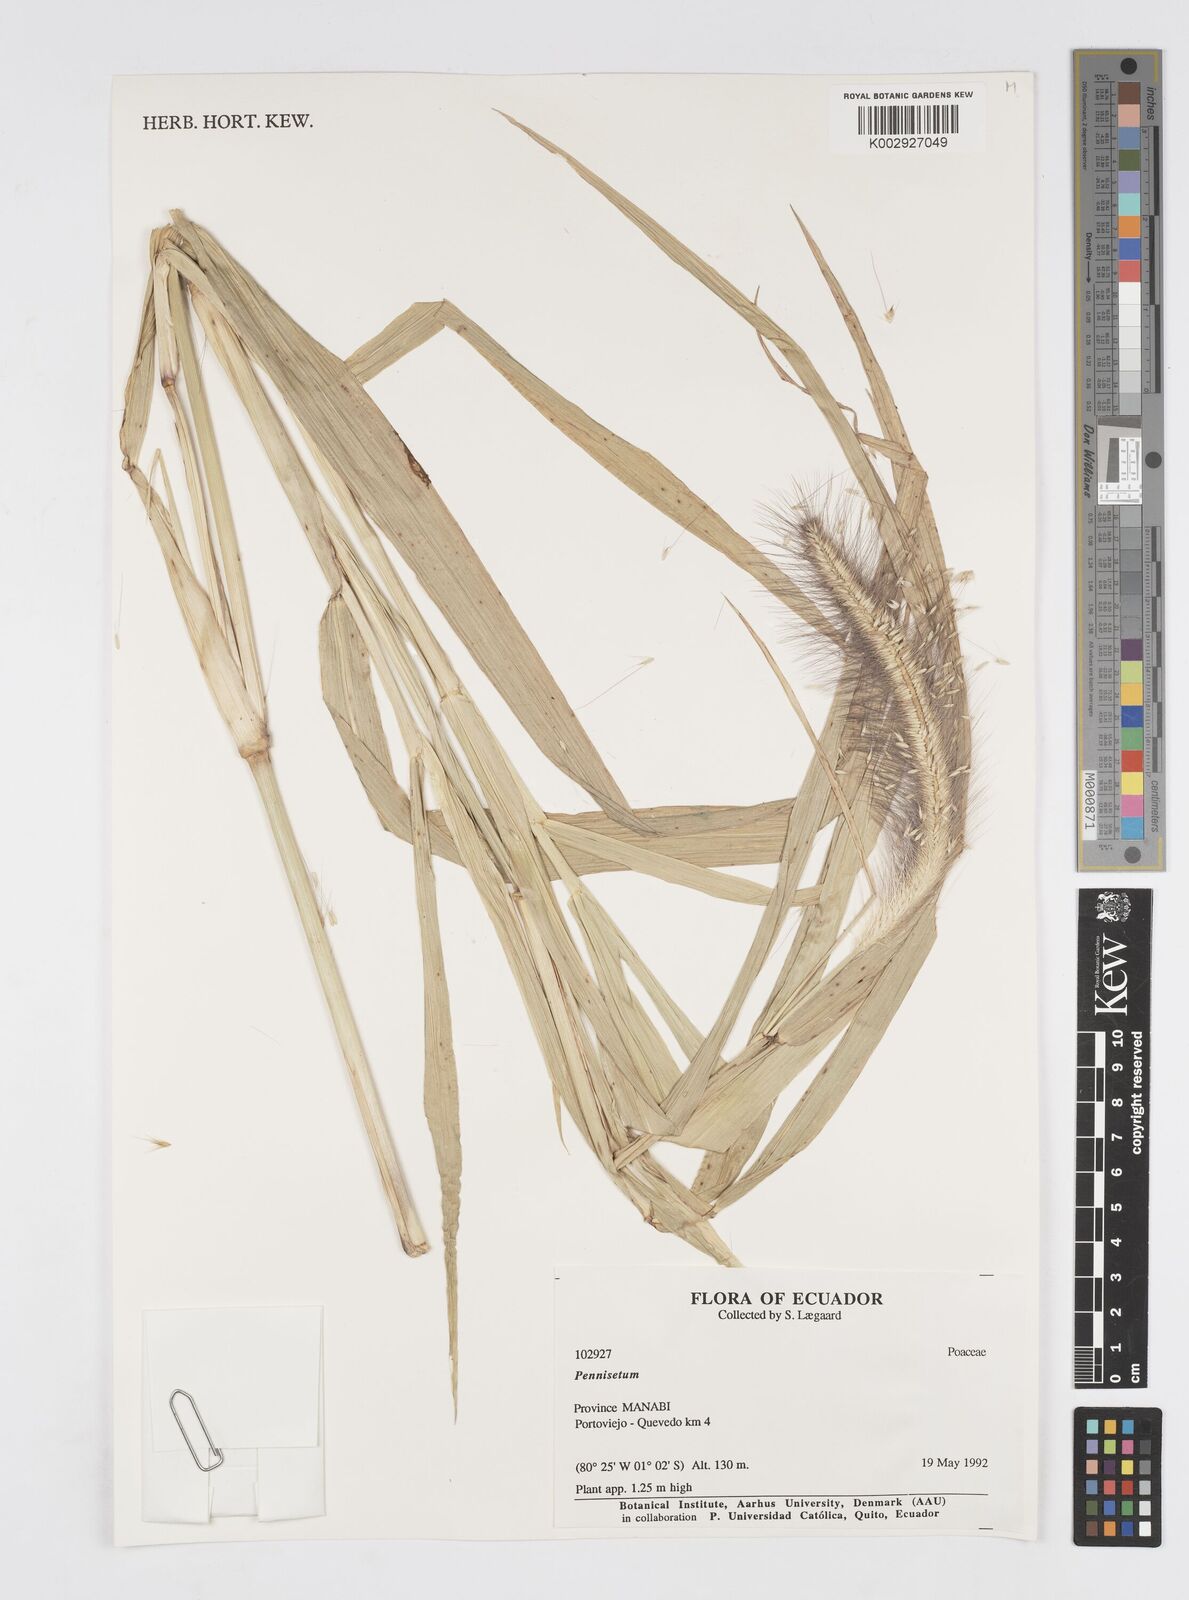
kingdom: Plantae
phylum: Tracheophyta
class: Liliopsida
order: Poales
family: Poaceae
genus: Cenchrus
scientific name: Cenchrus occidentalis
